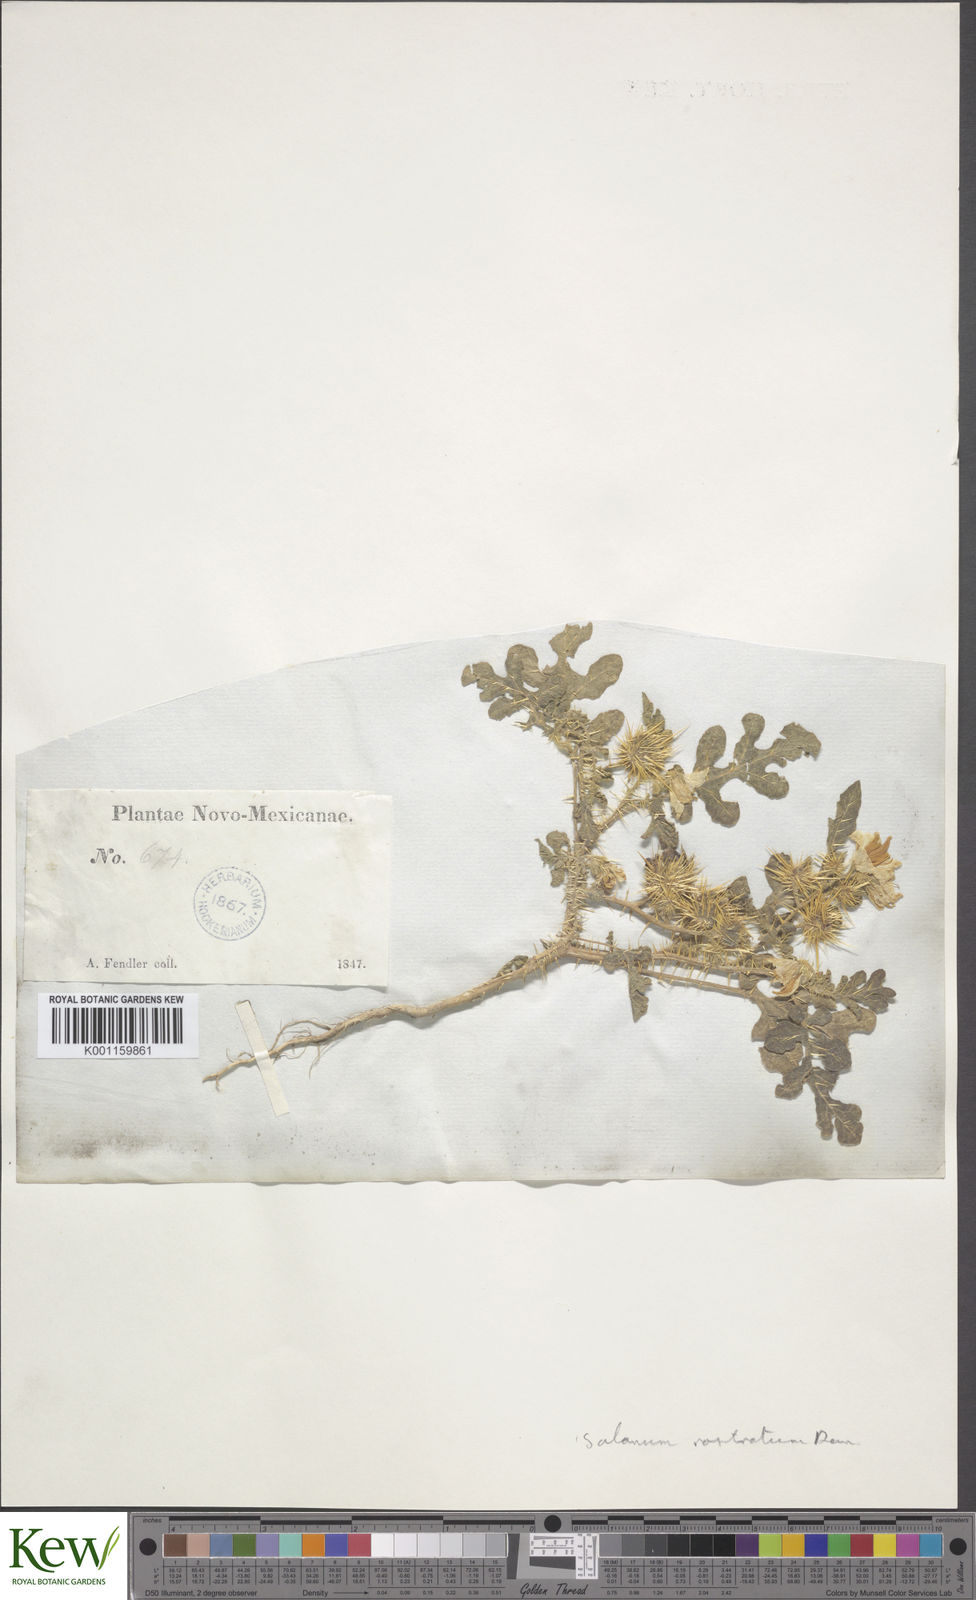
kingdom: Plantae
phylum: Tracheophyta
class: Magnoliopsida
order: Solanales
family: Solanaceae
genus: Solanum
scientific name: Solanum angustifolium
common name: Buffalobur nightshade
